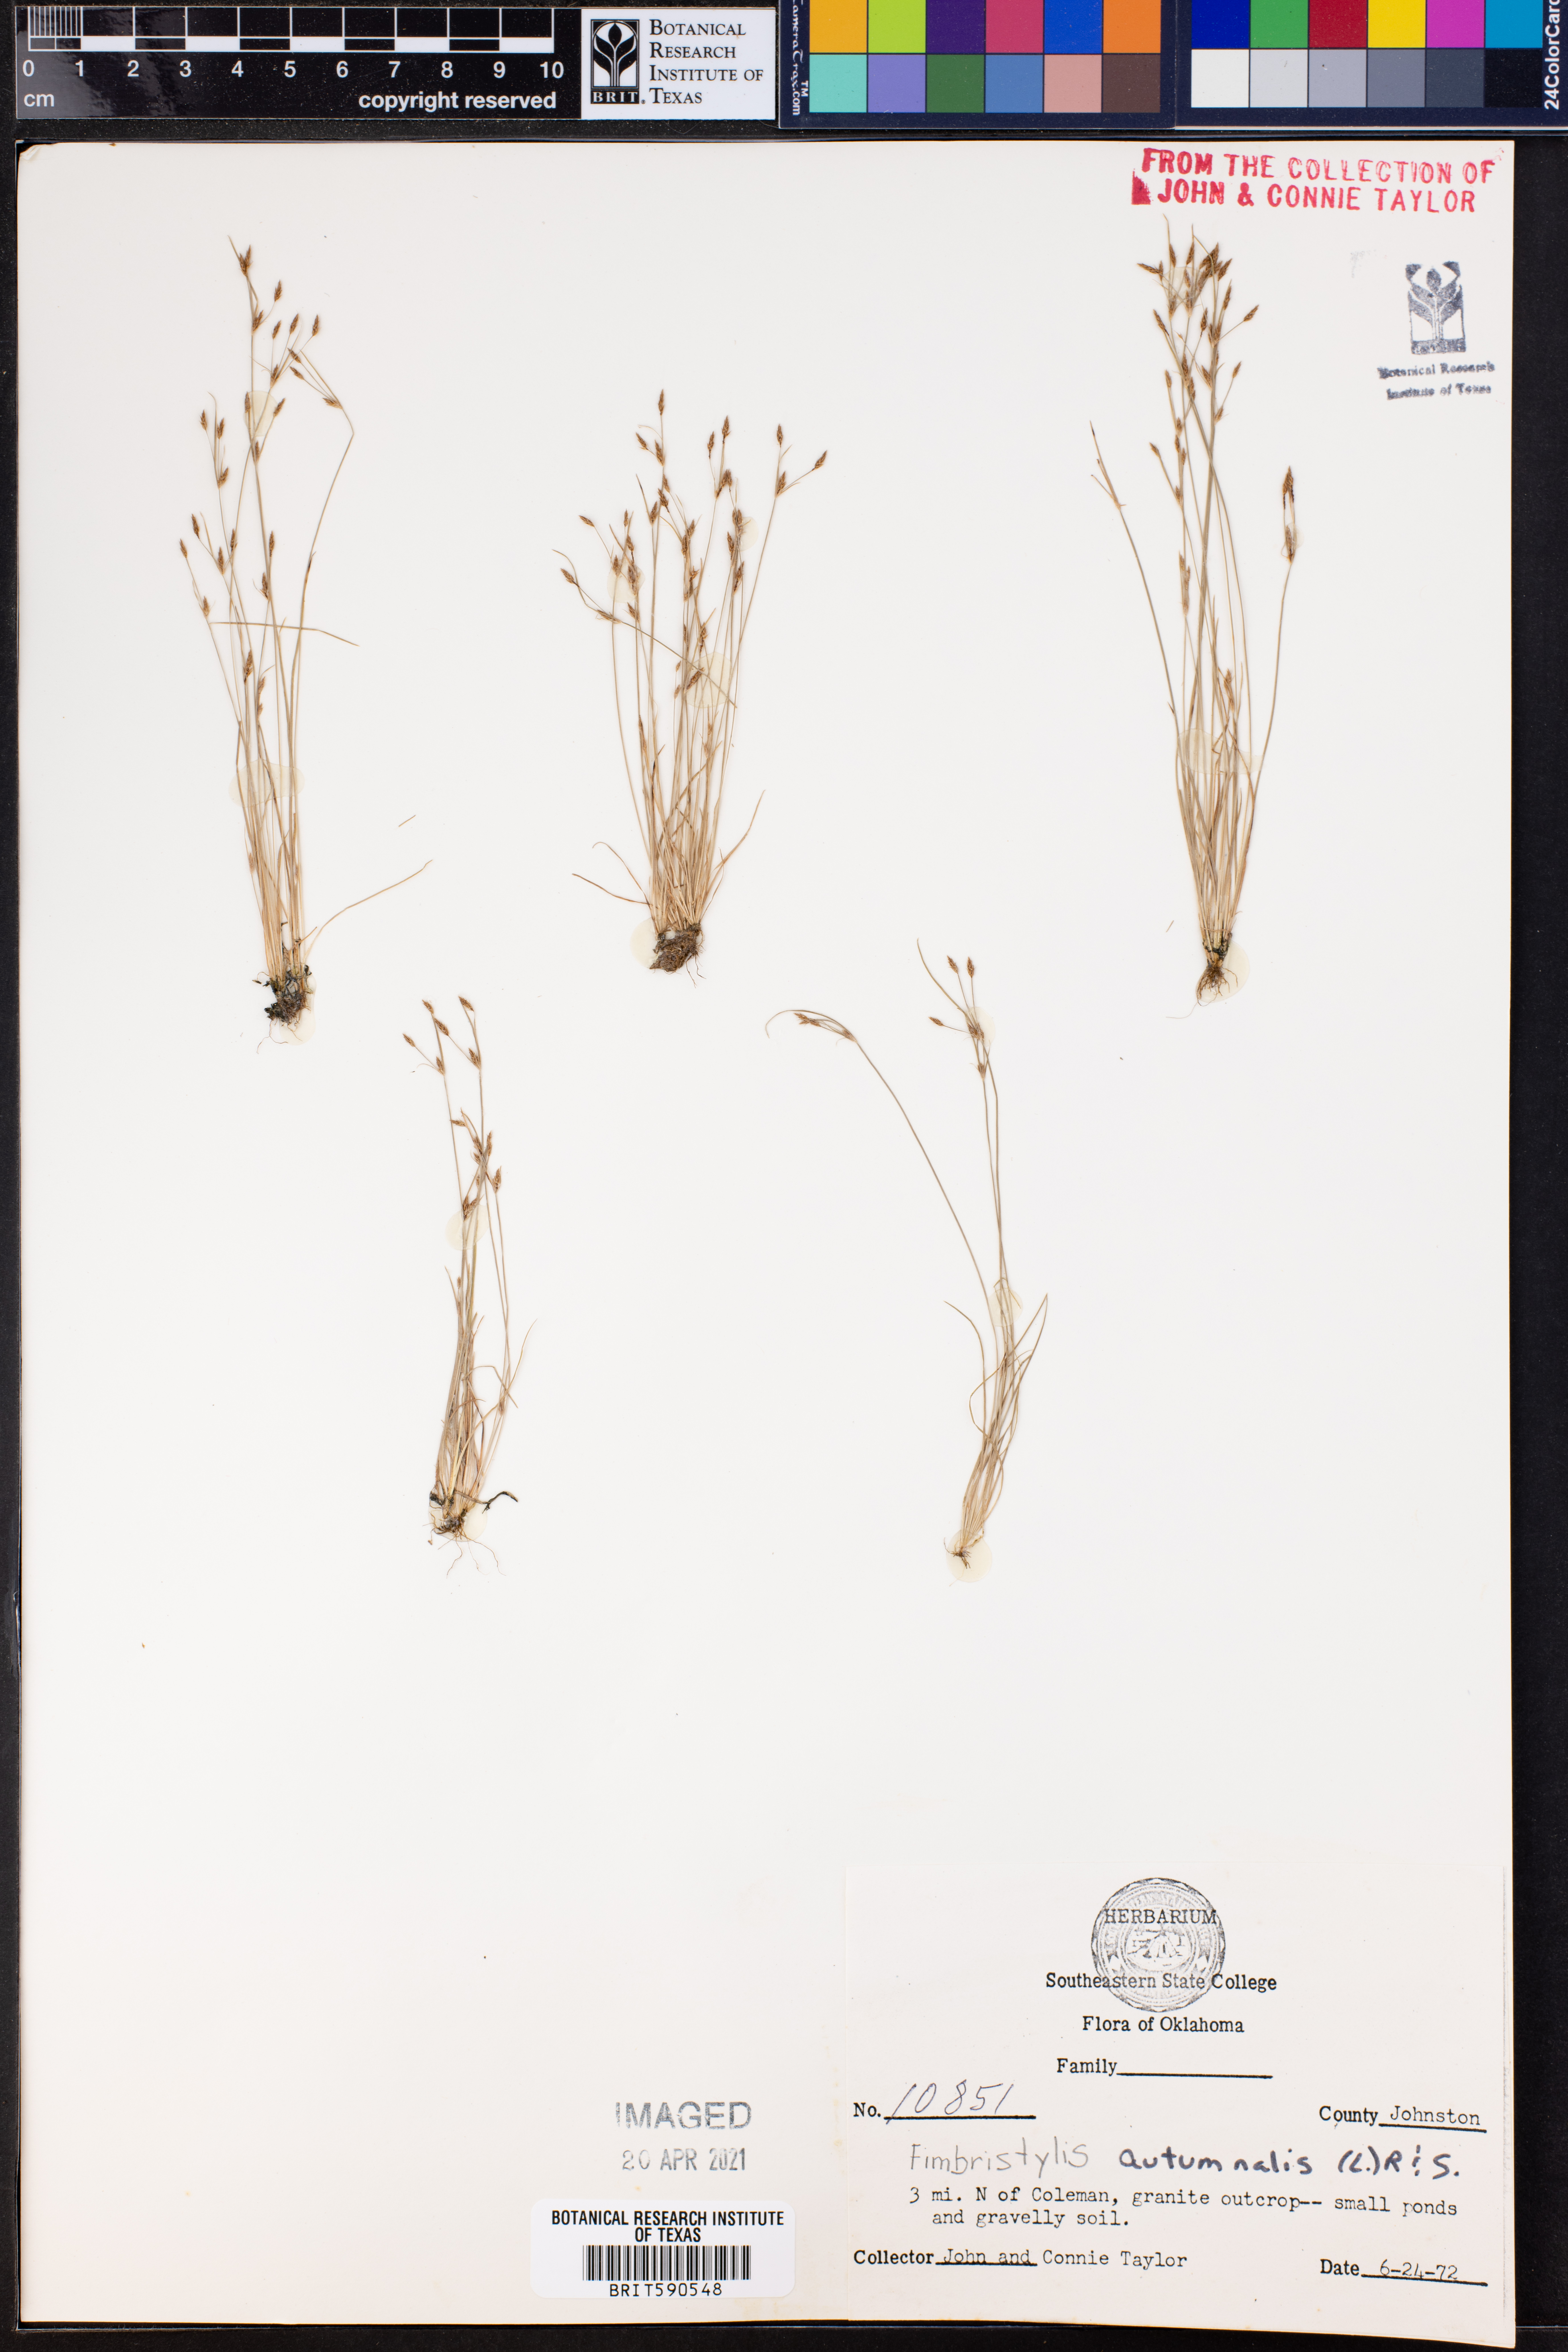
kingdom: Plantae
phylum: Tracheophyta
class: Liliopsida
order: Poales
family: Cyperaceae
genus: Fimbristylis
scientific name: Fimbristylis autumnalis
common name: Slender fimbristylis
